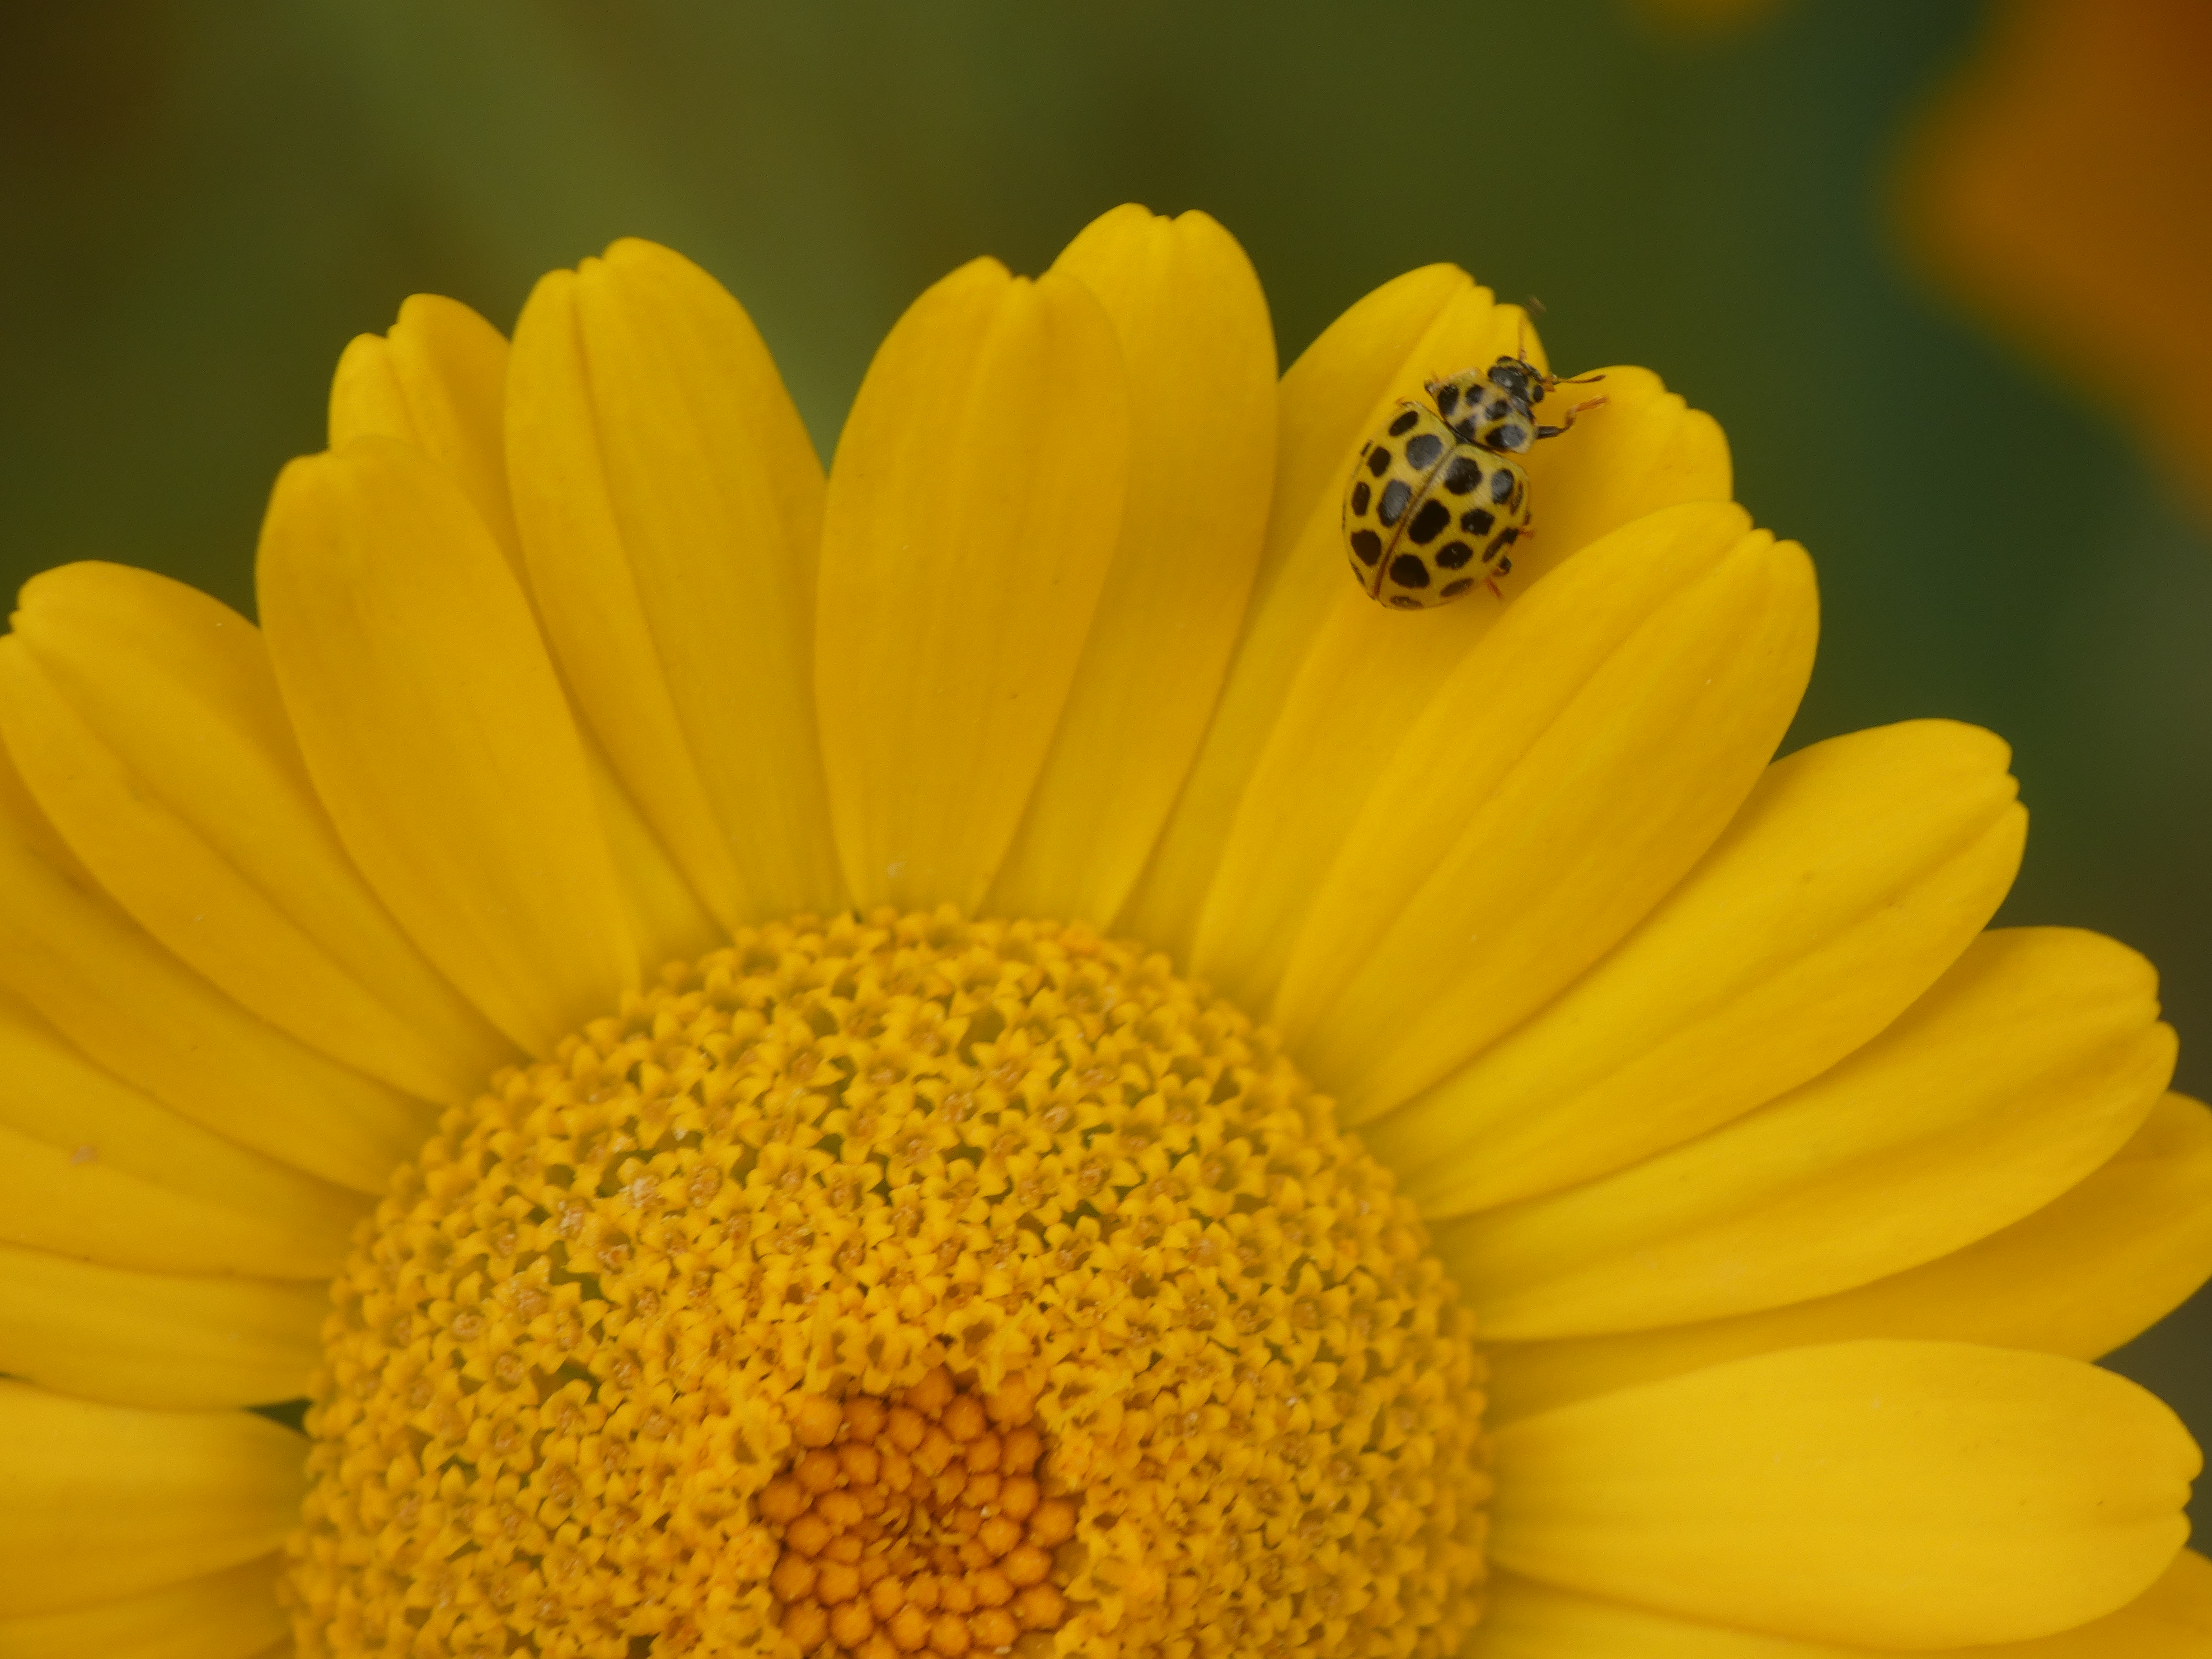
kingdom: Animalia
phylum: Arthropoda
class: Insecta
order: Coleoptera
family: Coccinellidae
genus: Psyllobora
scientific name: Psyllobora vigintiduopunctata
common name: Toogtyveplettet mariehøne
